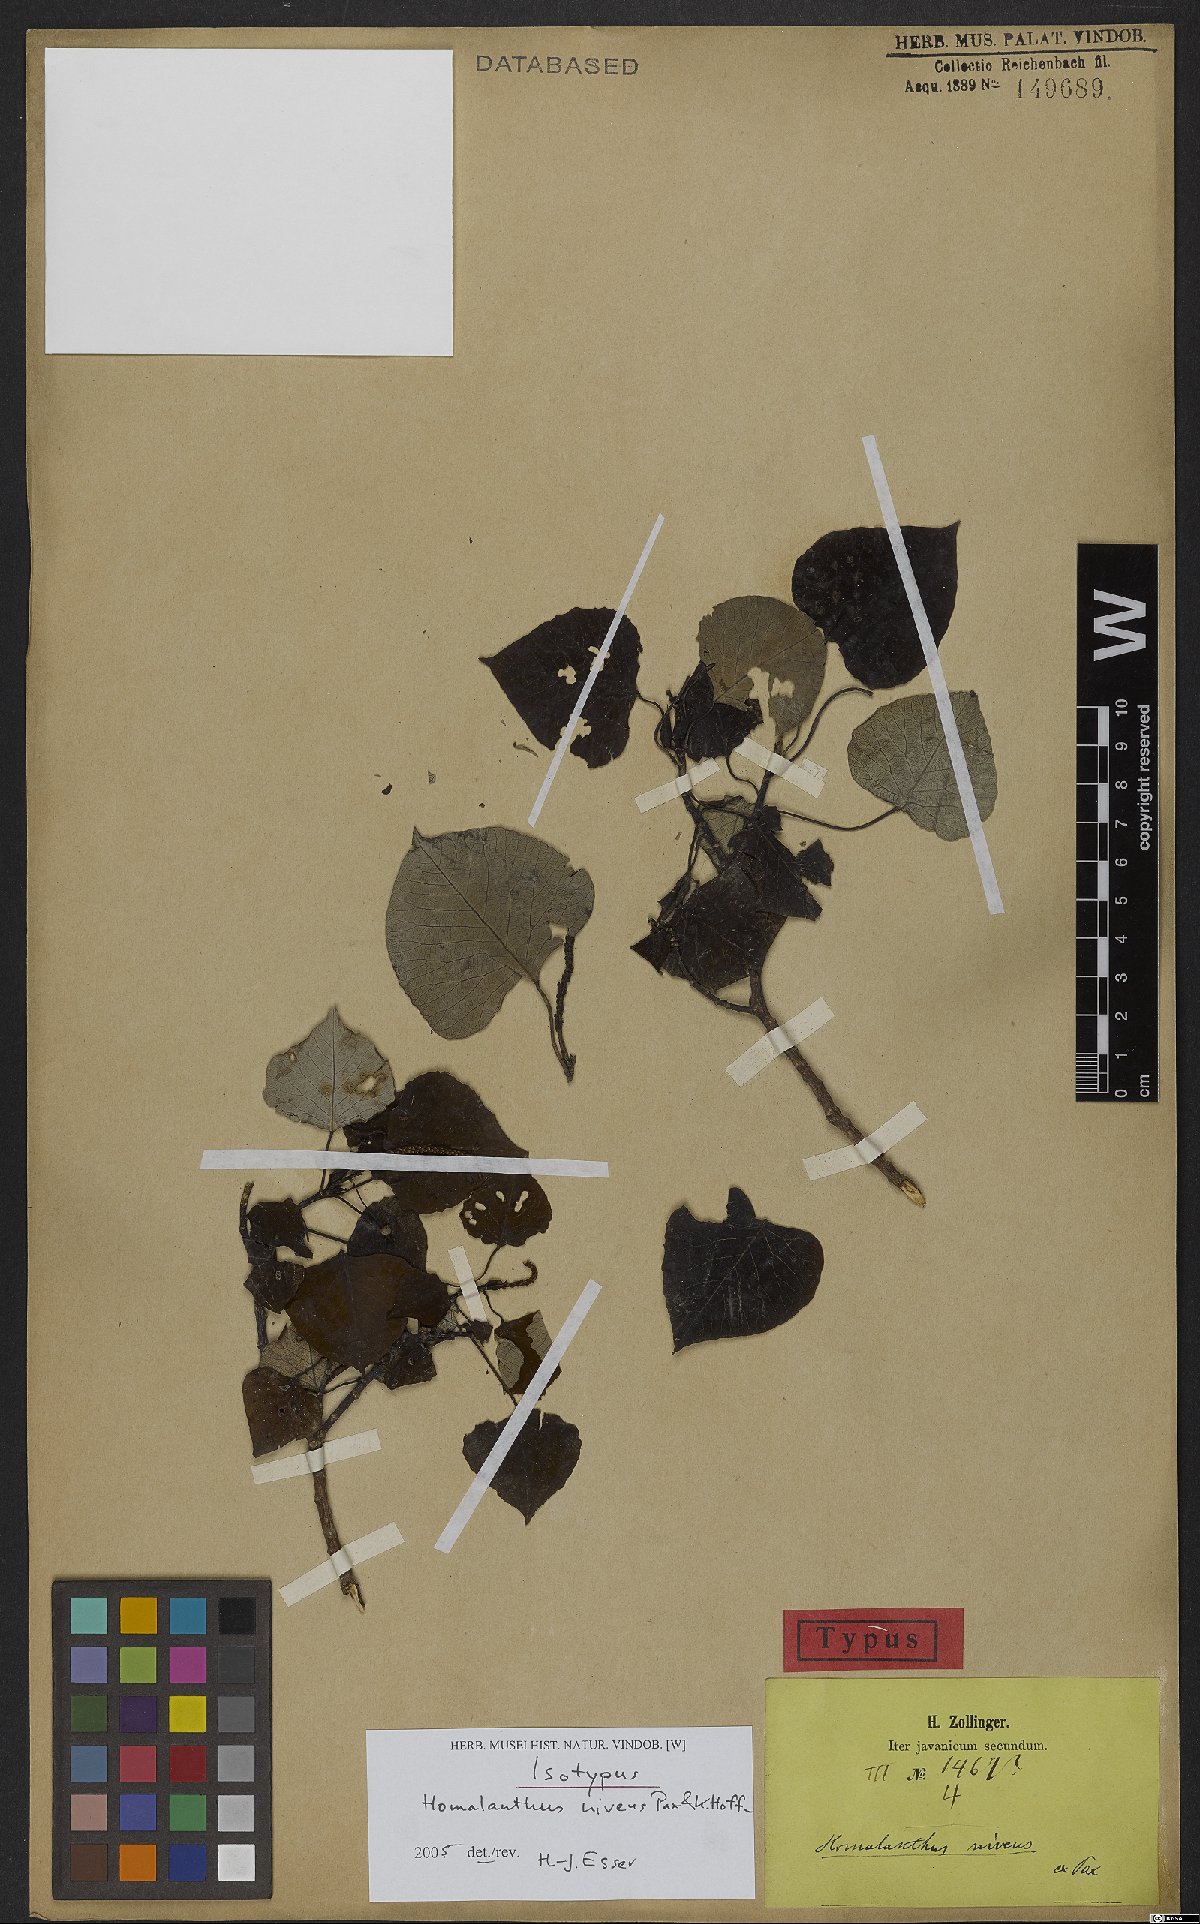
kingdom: Plantae
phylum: Tracheophyta
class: Magnoliopsida
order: Malpighiales
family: Euphorbiaceae
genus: Homalanthus
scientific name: Homalanthus giganteus
